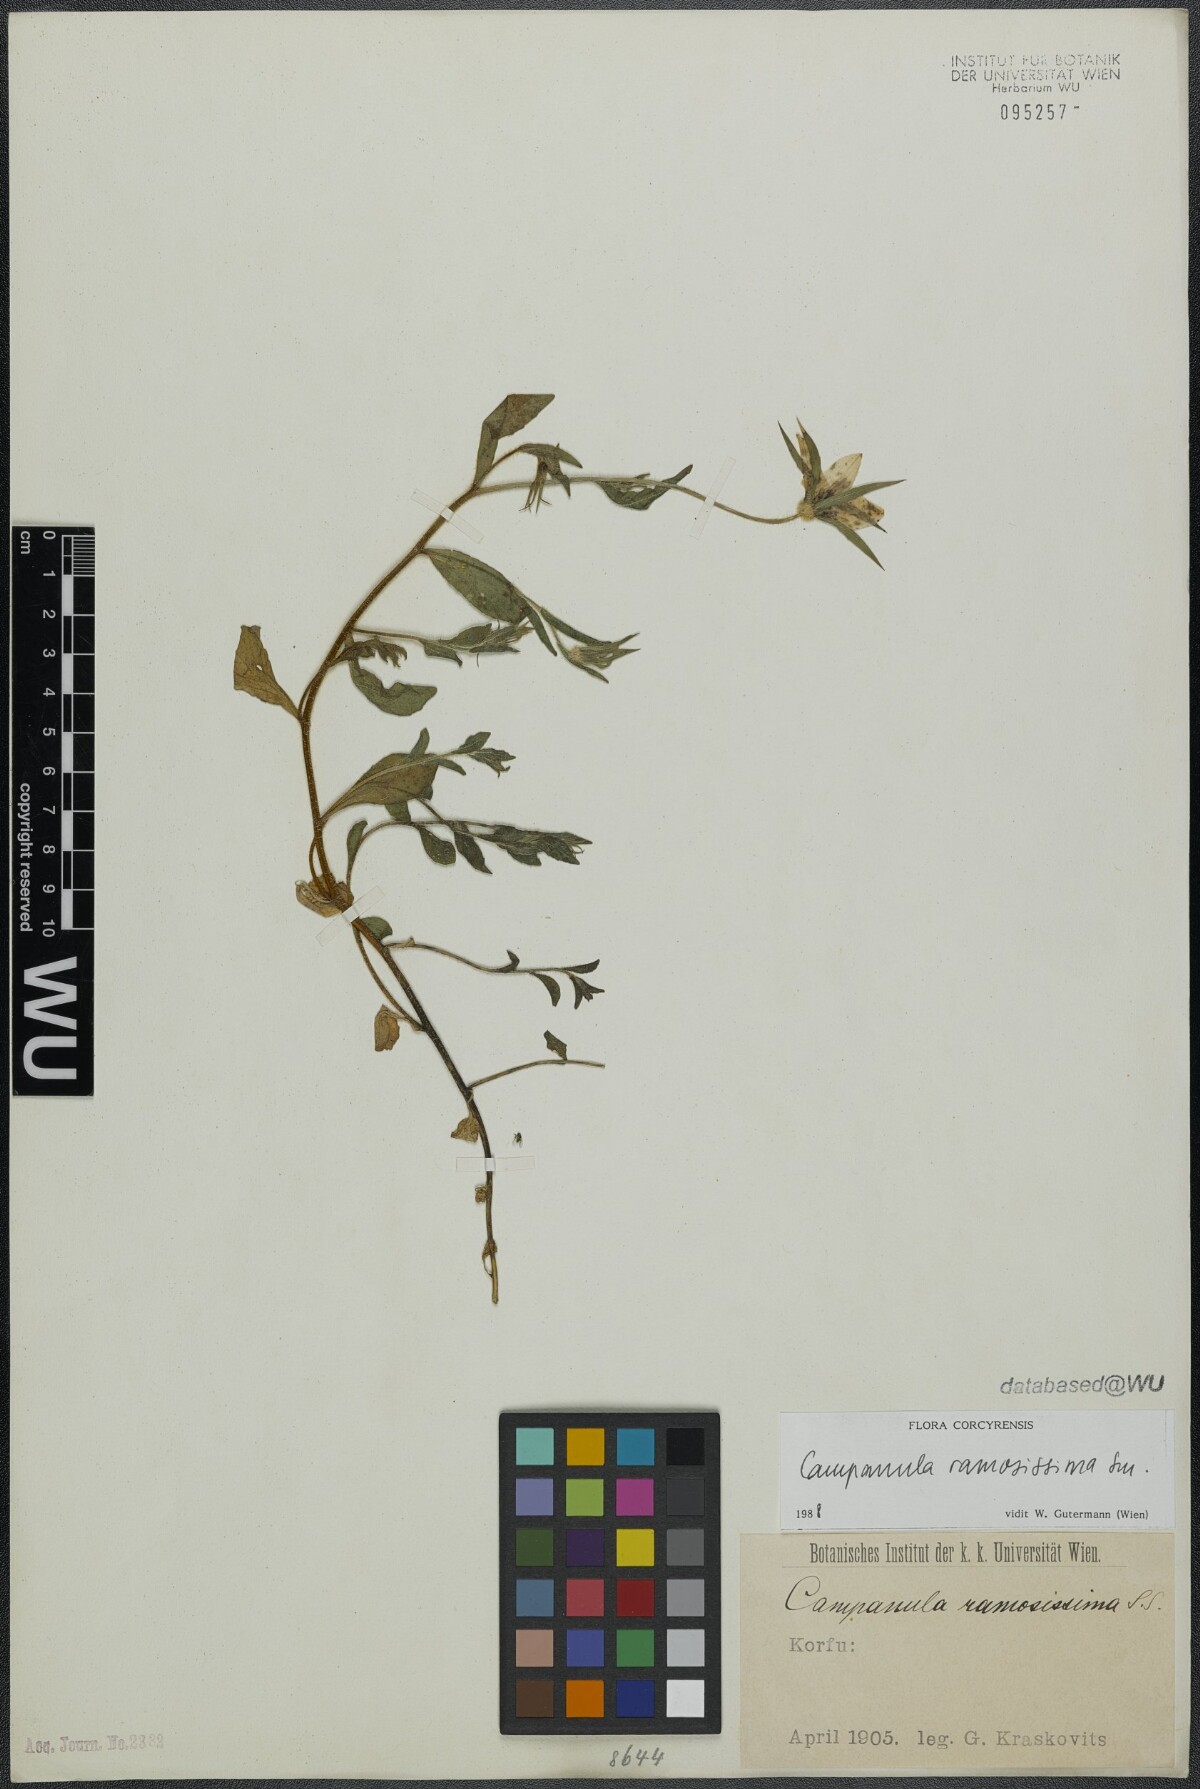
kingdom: Plantae
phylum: Tracheophyta
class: Magnoliopsida
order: Asterales
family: Campanulaceae
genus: Campanula
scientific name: Campanula ramosissima
